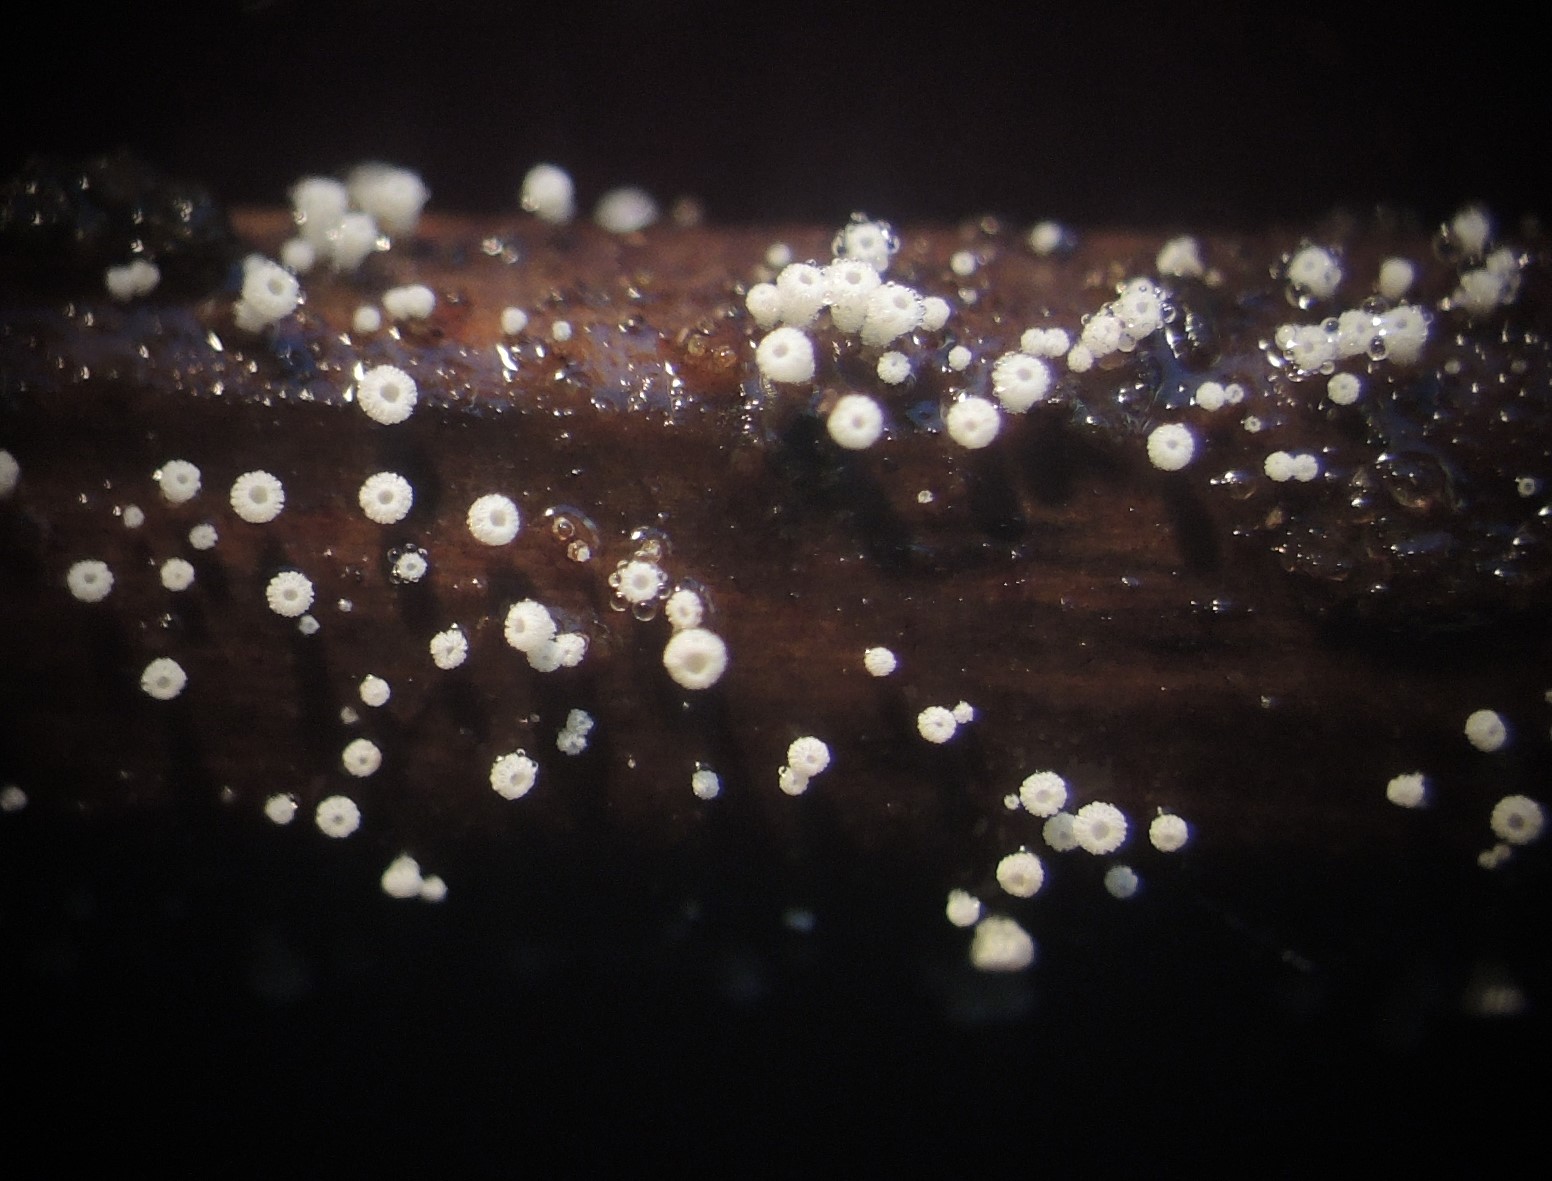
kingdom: Fungi
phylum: Ascomycota
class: Leotiomycetes
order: Helotiales
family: Lachnaceae
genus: Lachnum
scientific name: Lachnum
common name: frynseskive
